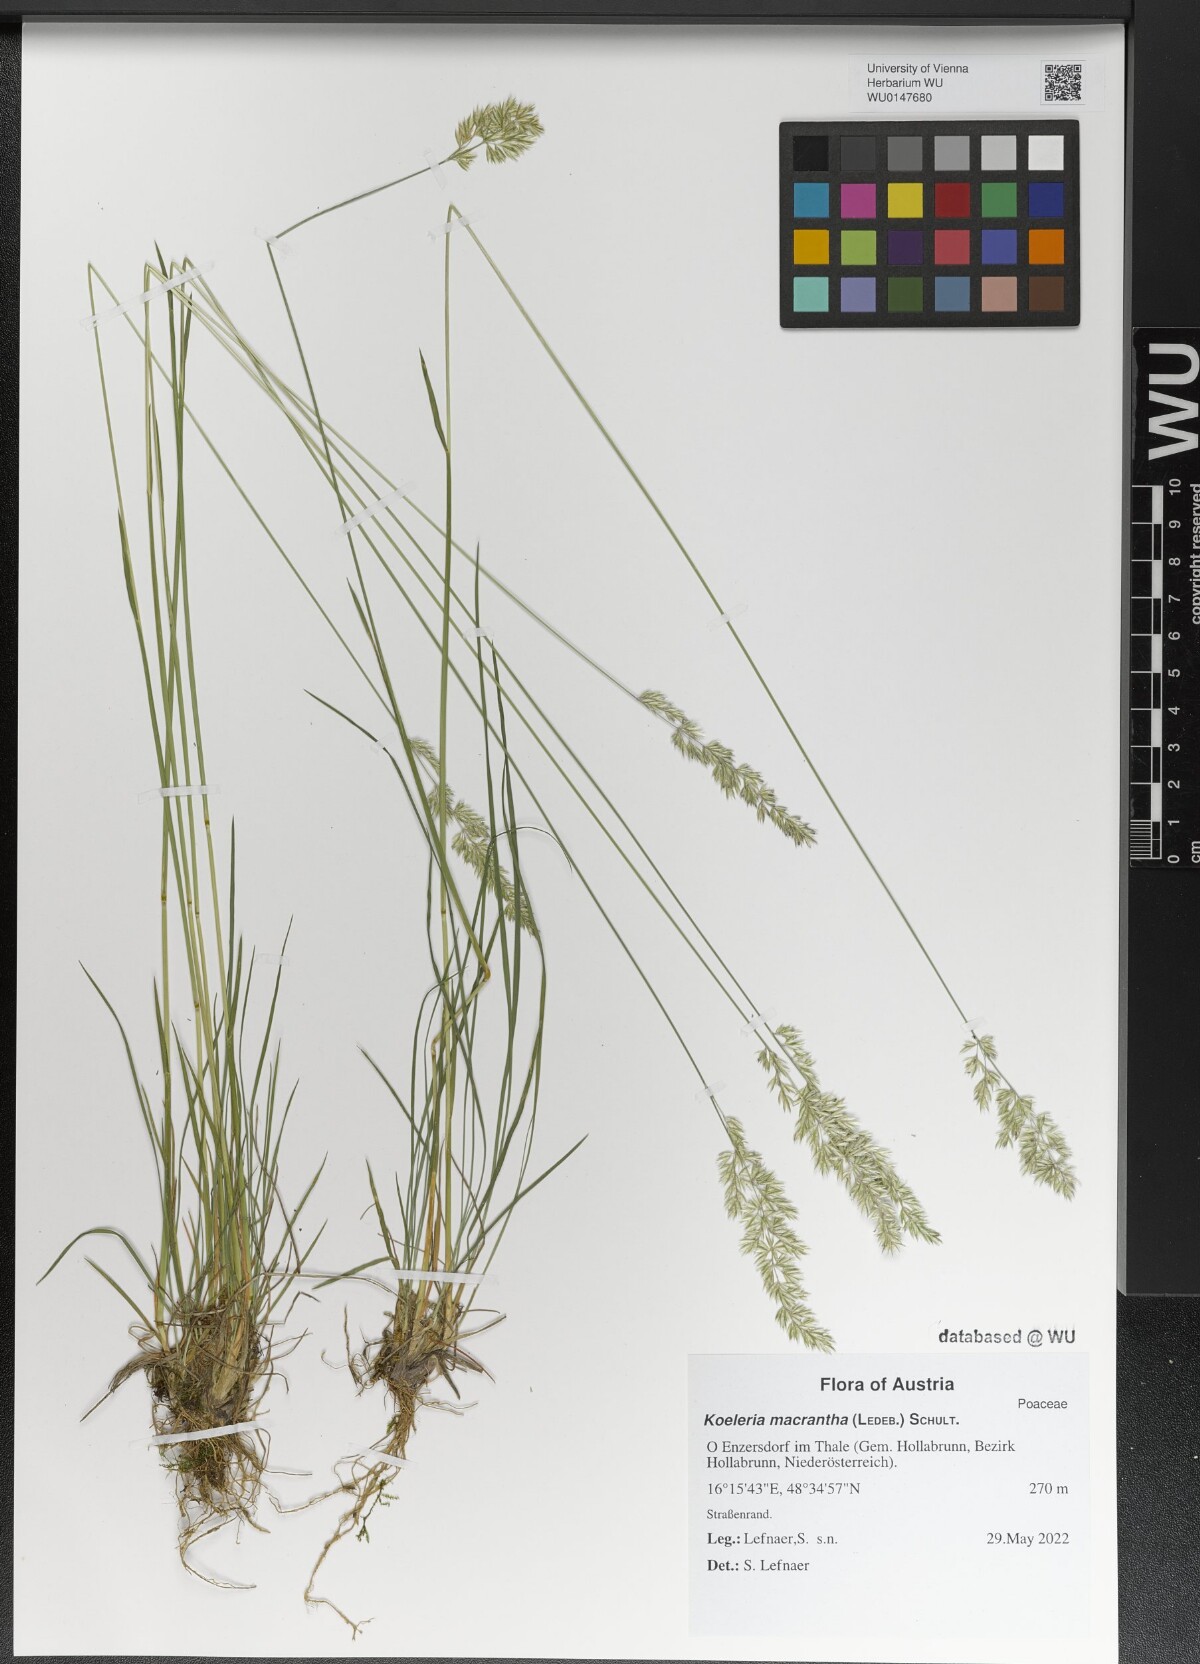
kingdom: Plantae
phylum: Tracheophyta
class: Liliopsida
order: Poales
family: Poaceae
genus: Koeleria
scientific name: Koeleria macrantha
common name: Crested hair-grass
